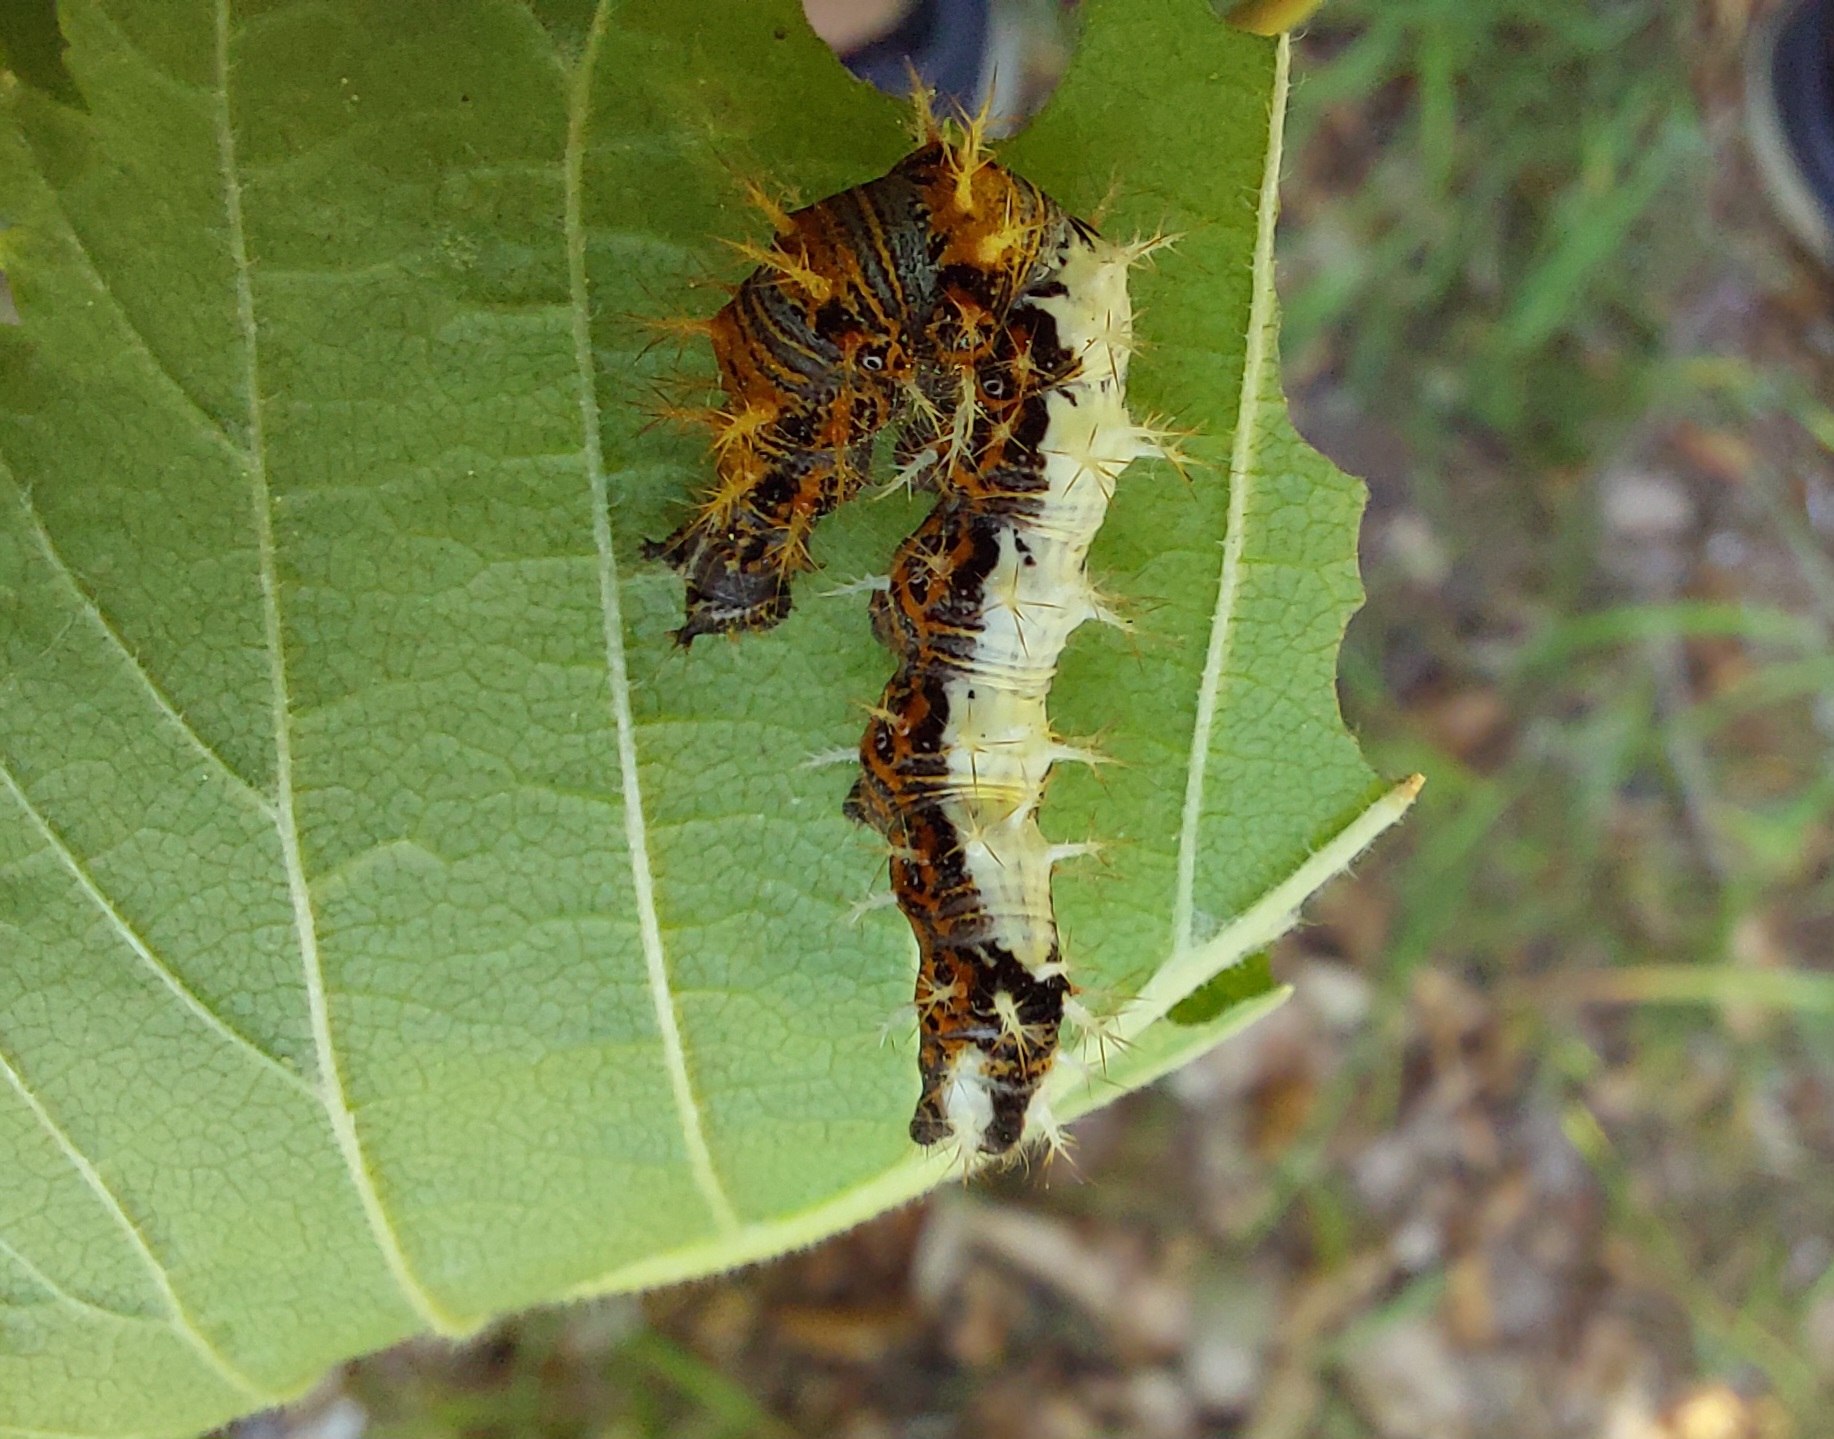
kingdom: Animalia
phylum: Arthropoda
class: Insecta
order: Lepidoptera
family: Nymphalidae
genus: Polygonia
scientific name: Polygonia c-album
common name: Det hvide C
